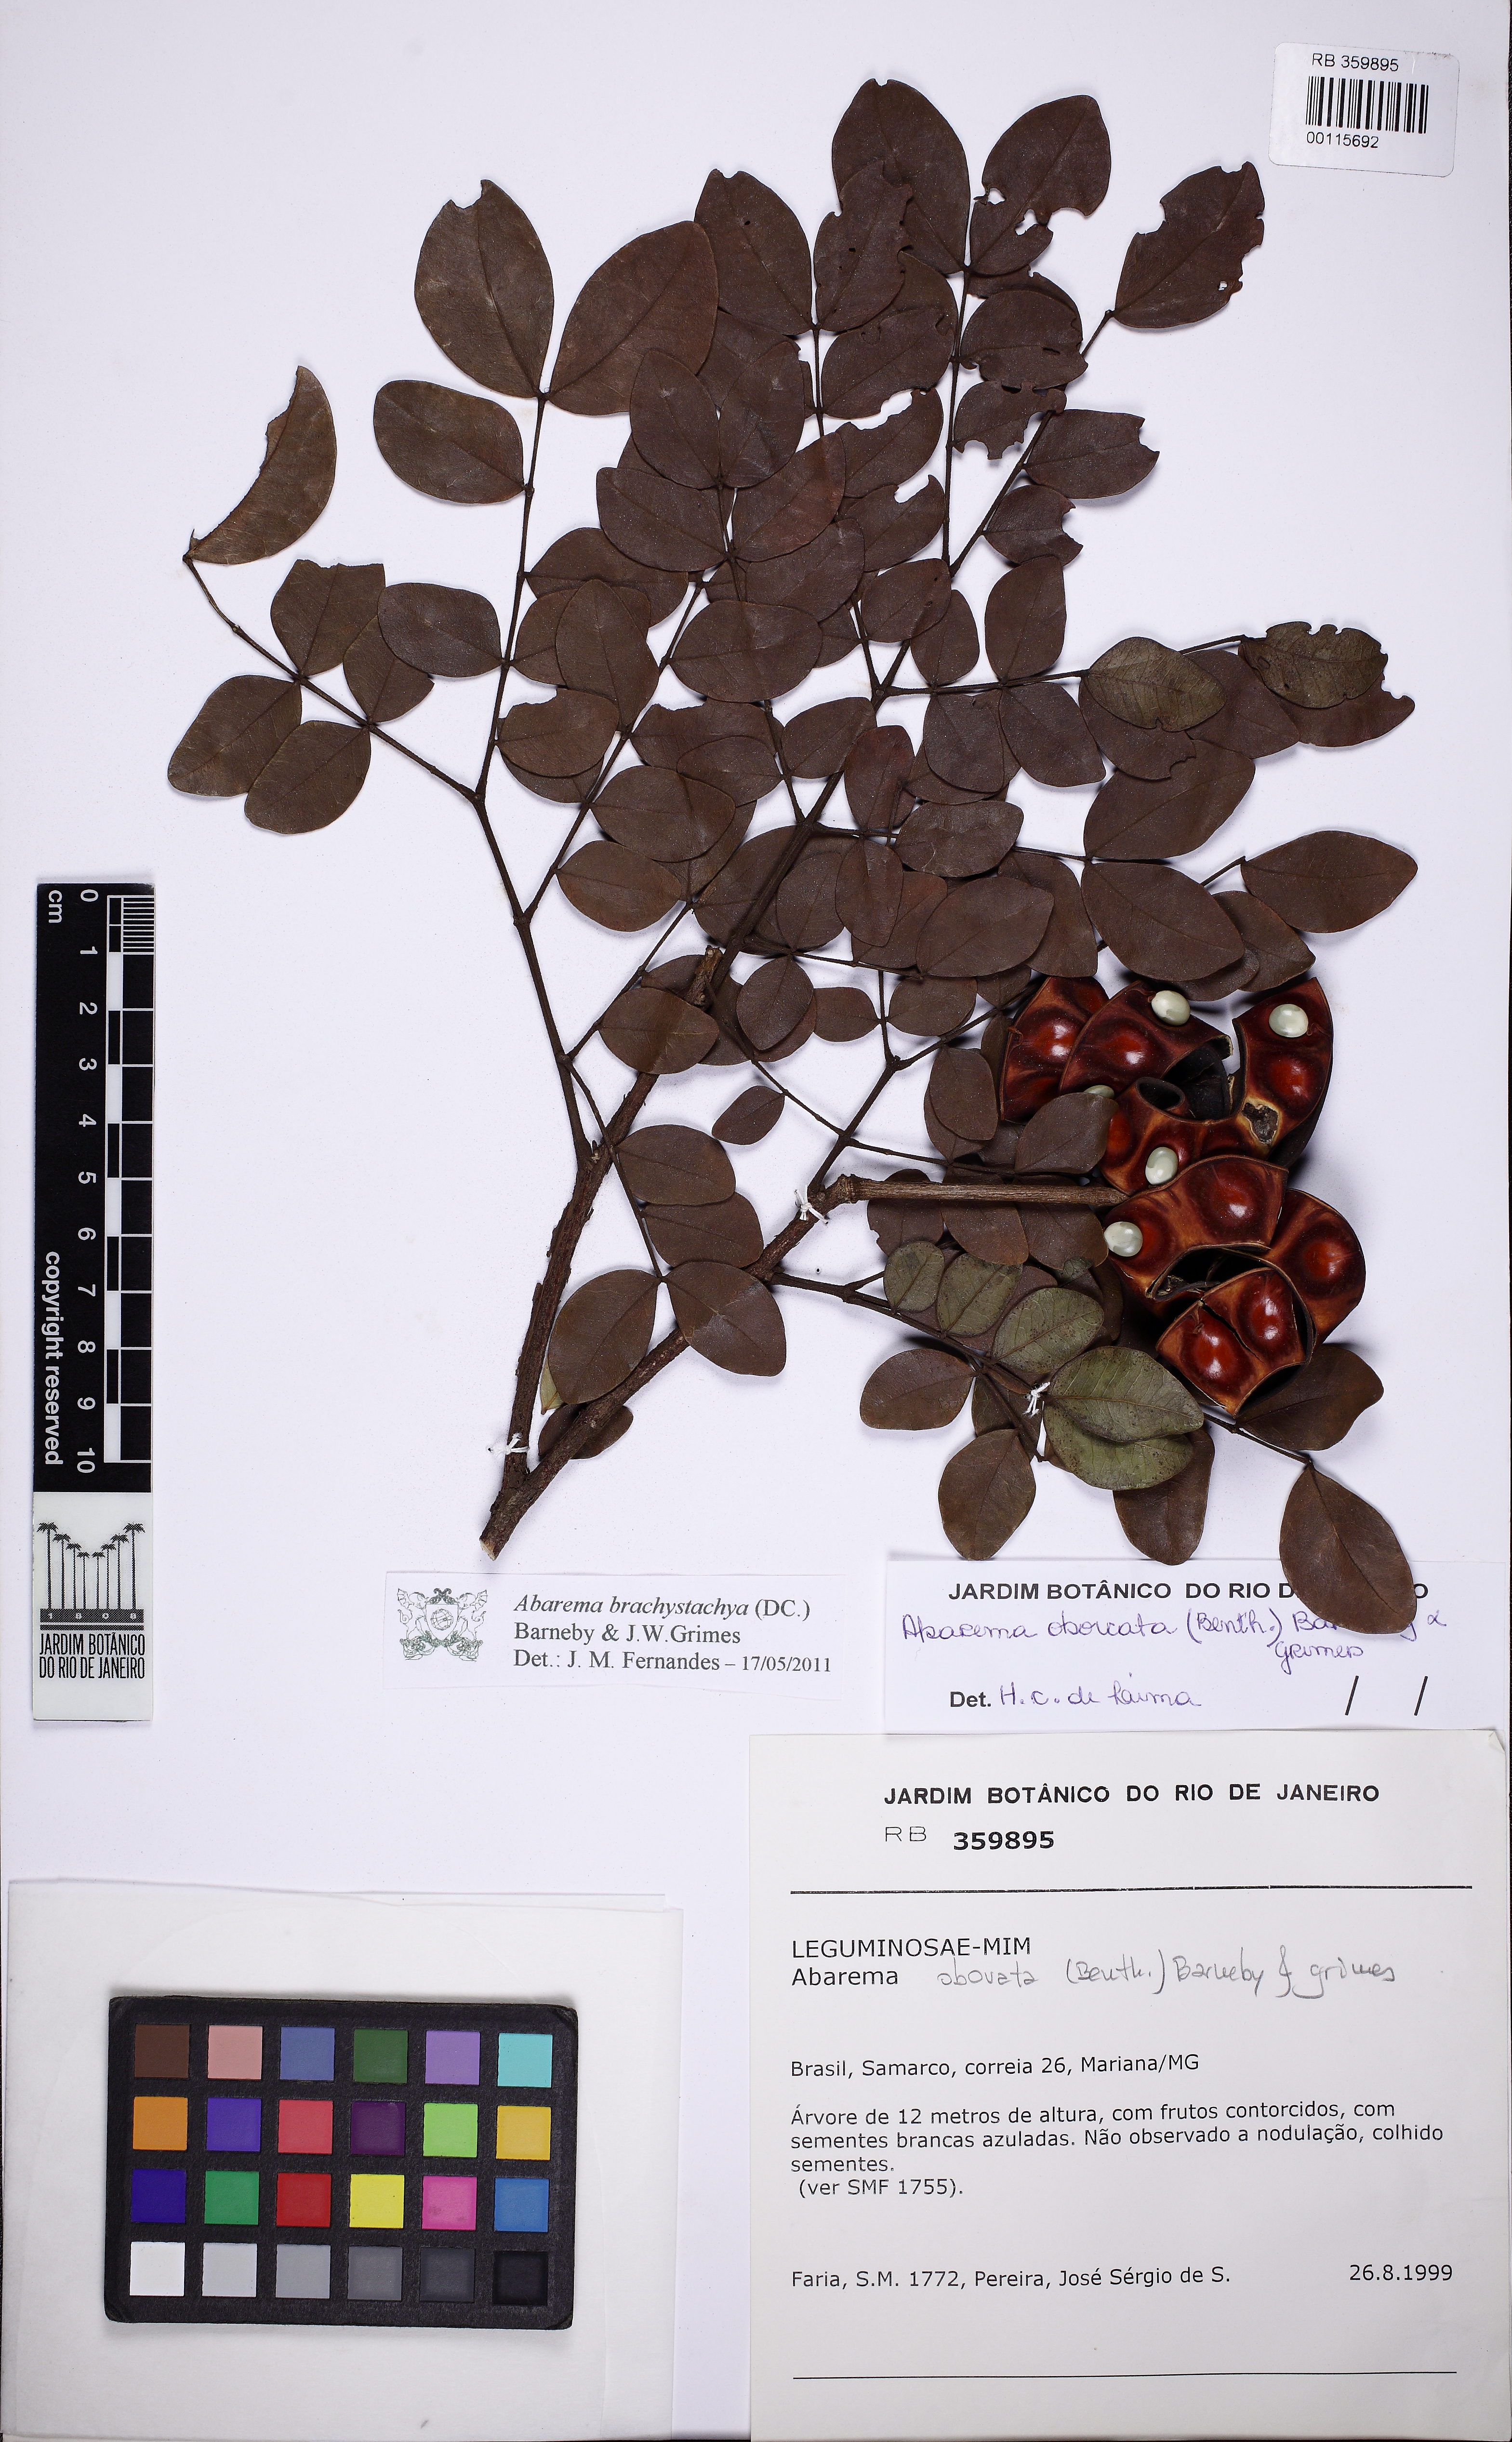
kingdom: Plantae
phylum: Tracheophyta
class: Magnoliopsida
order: Fabales
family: Fabaceae
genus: Jupunba
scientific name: Jupunba brachystachya
